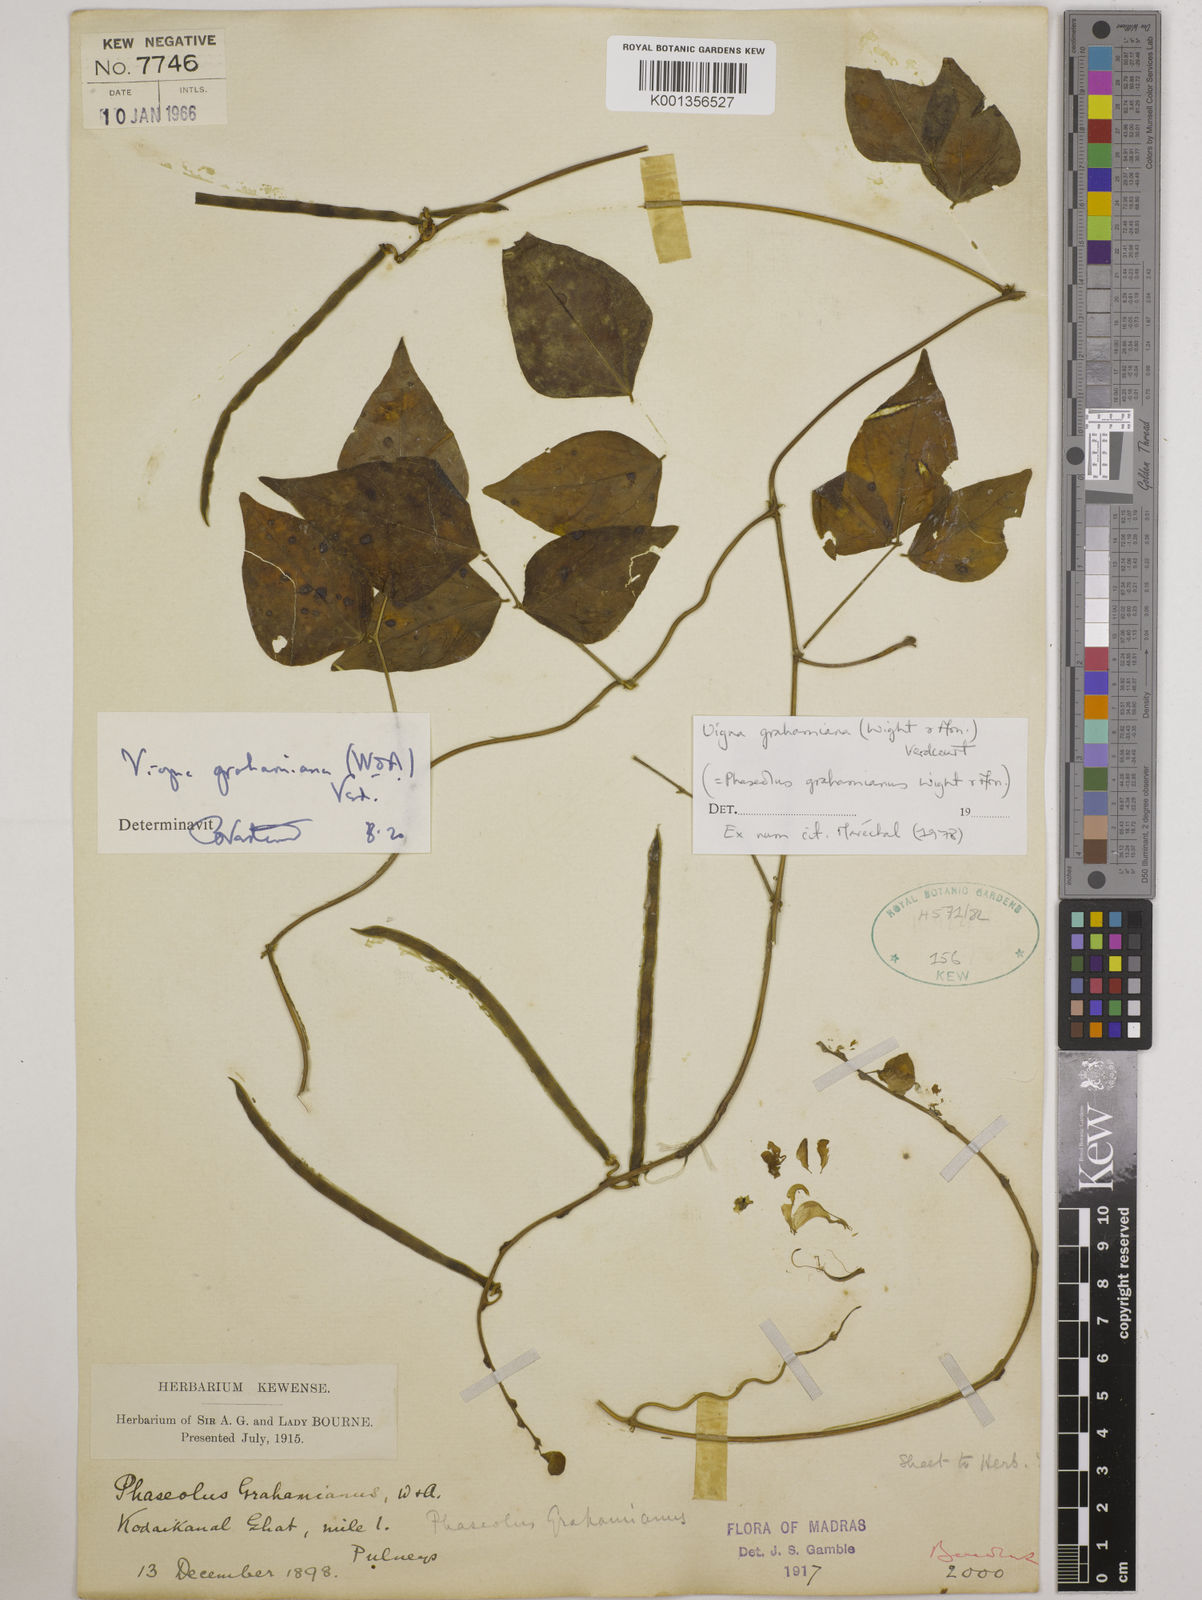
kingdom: Plantae
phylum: Tracheophyta
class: Magnoliopsida
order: Fabales
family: Fabaceae
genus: Wajira
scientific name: Wajira grahamiana
